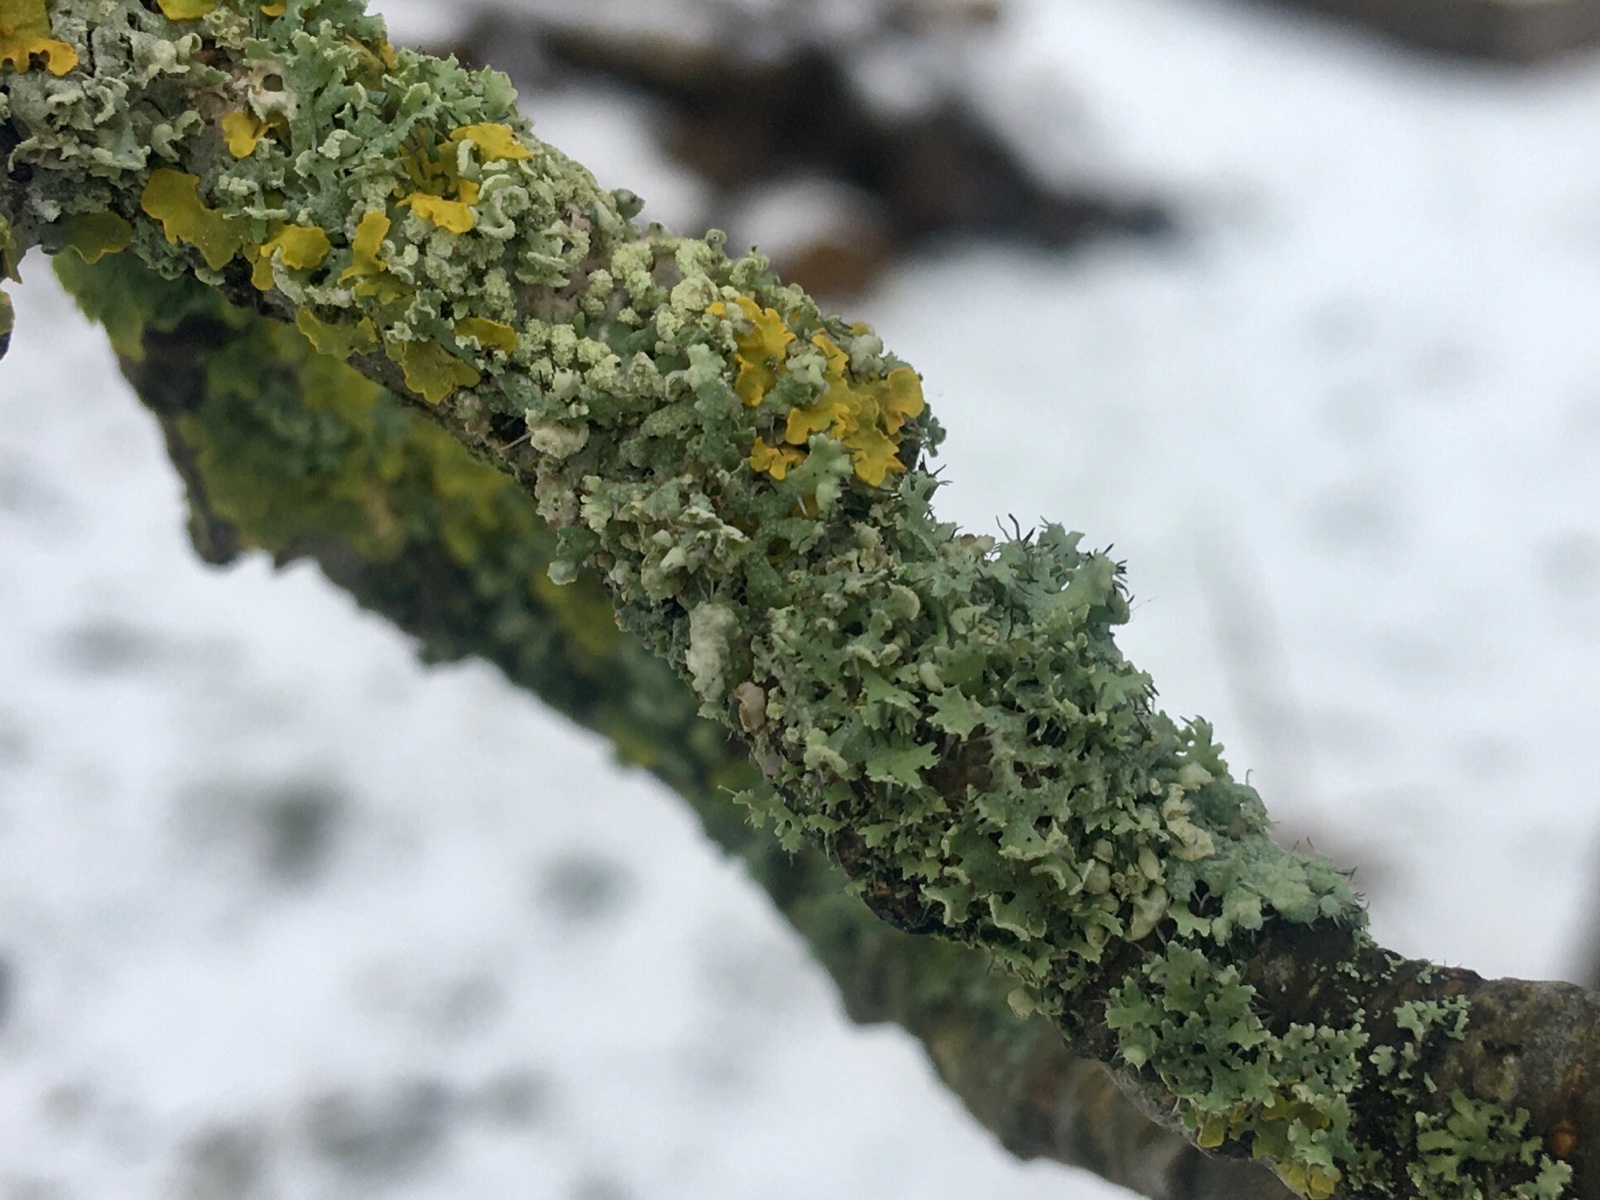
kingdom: Fungi
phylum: Ascomycota
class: Lecanoromycetes
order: Caliciales
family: Physciaceae
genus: Physcia
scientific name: Physcia tenella
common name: spæd rosetlav
